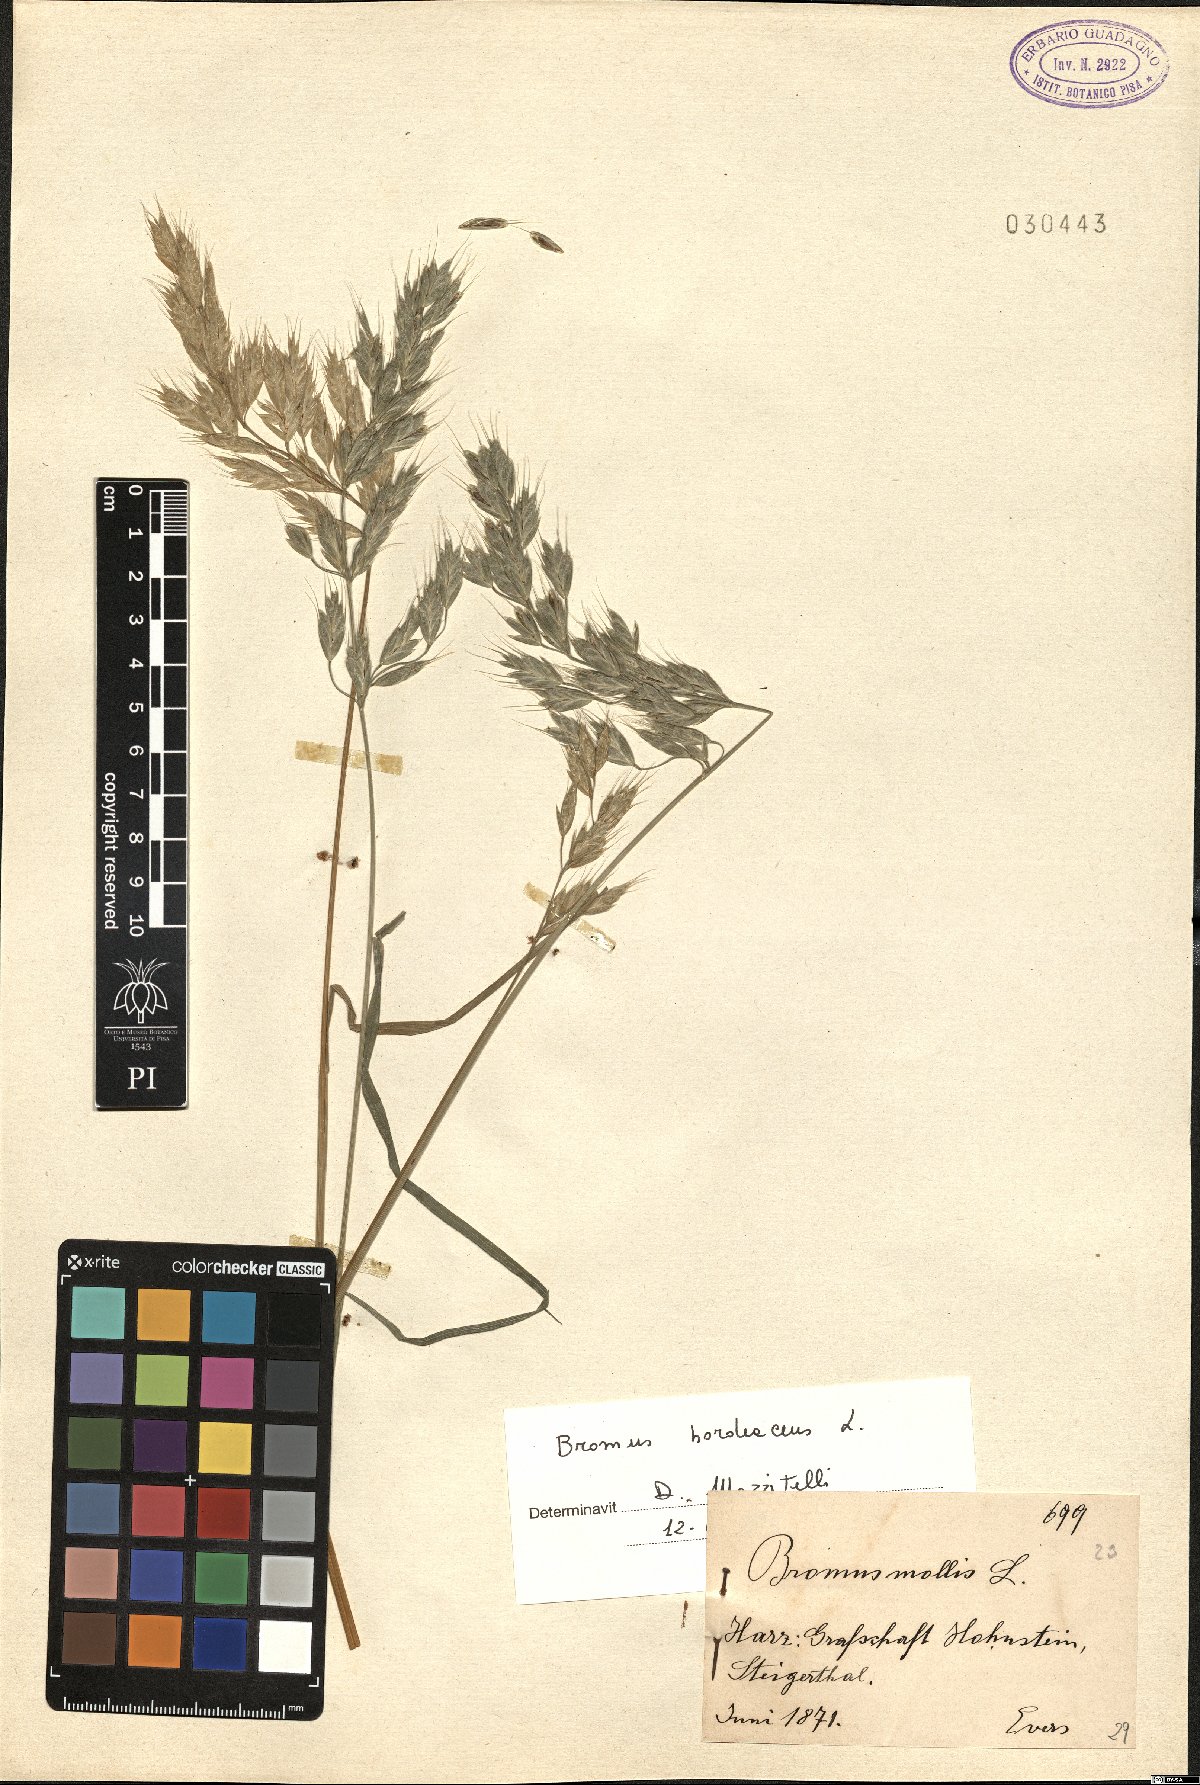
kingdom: Plantae
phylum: Tracheophyta
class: Liliopsida
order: Poales
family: Poaceae
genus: Bromus
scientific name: Bromus hordeaceus
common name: Soft brome
